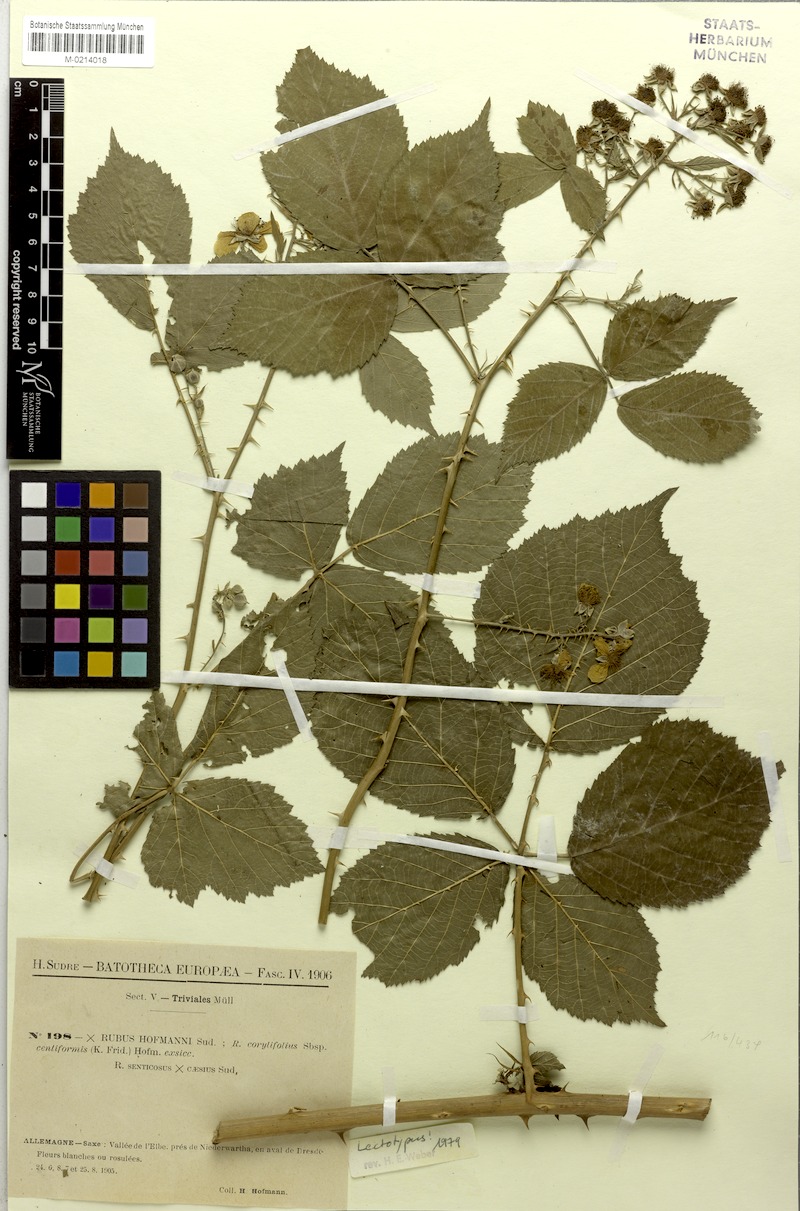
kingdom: Plantae
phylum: Tracheophyta
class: Magnoliopsida
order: Rosales
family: Rosaceae
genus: Rubus
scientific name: Rubus hofmannii
